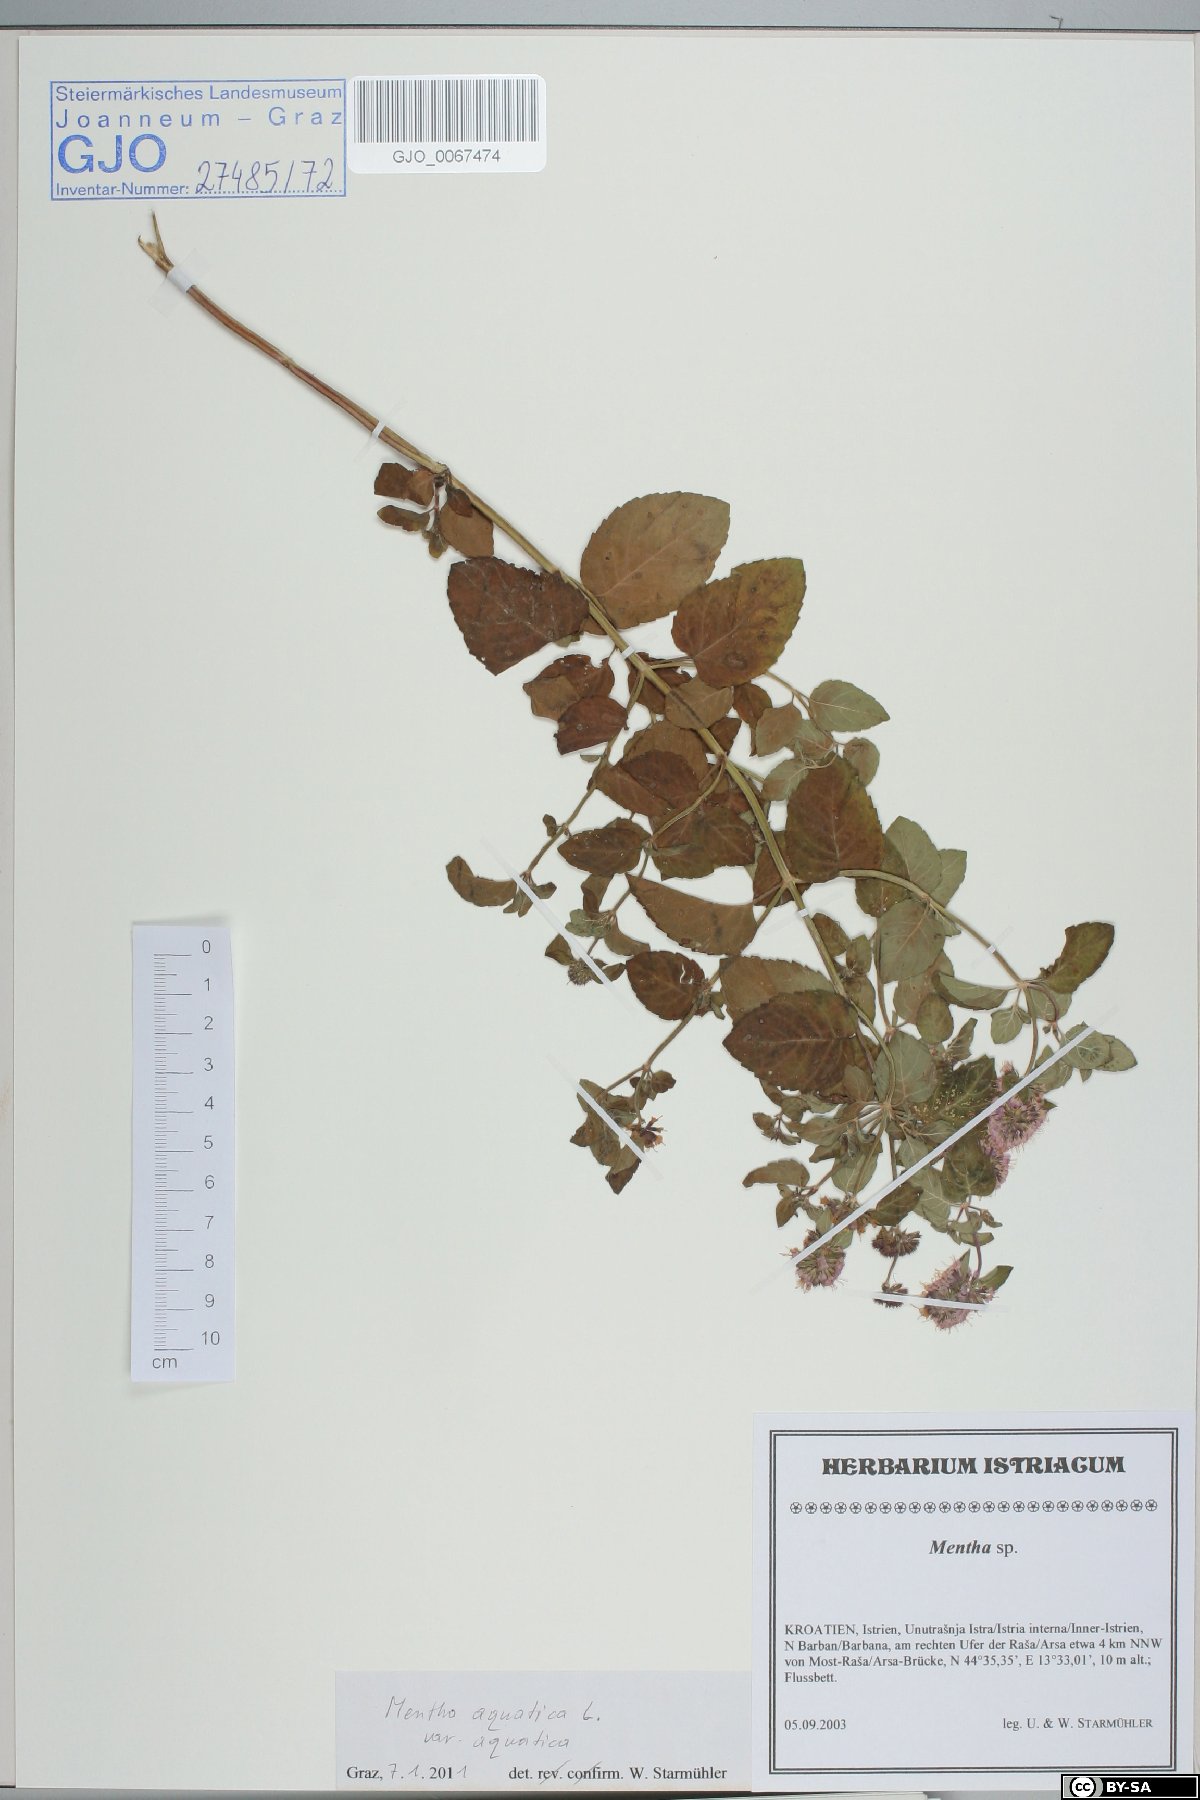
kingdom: Plantae
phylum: Tracheophyta
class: Magnoliopsida
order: Lamiales
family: Lamiaceae
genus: Mentha
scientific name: Mentha aquatica
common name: Water mint
